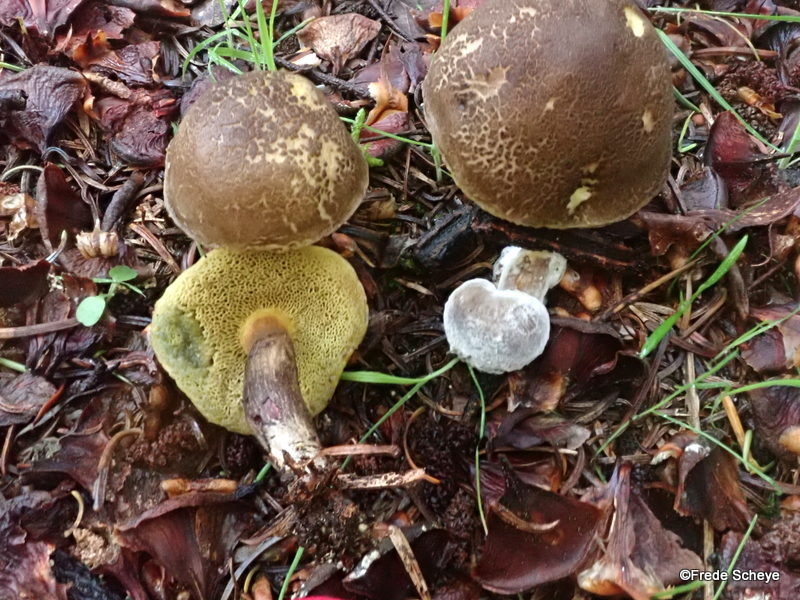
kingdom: Fungi
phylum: Basidiomycota
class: Agaricomycetes
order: Boletales
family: Boletaceae
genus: Xerocomellus
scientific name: Xerocomellus porosporus
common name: hvidsprukken rørhat
